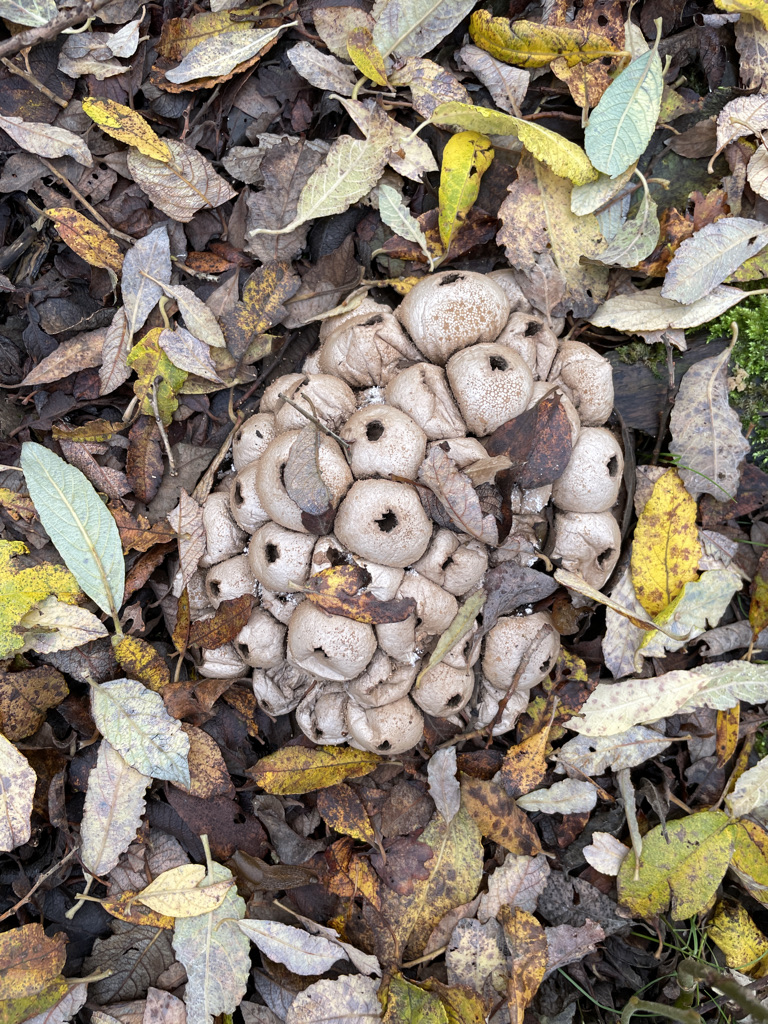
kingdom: Fungi
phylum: Basidiomycota
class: Agaricomycetes
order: Agaricales
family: Lycoperdaceae
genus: Apioperdon
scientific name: Apioperdon pyriforme
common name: pære-støvbold
